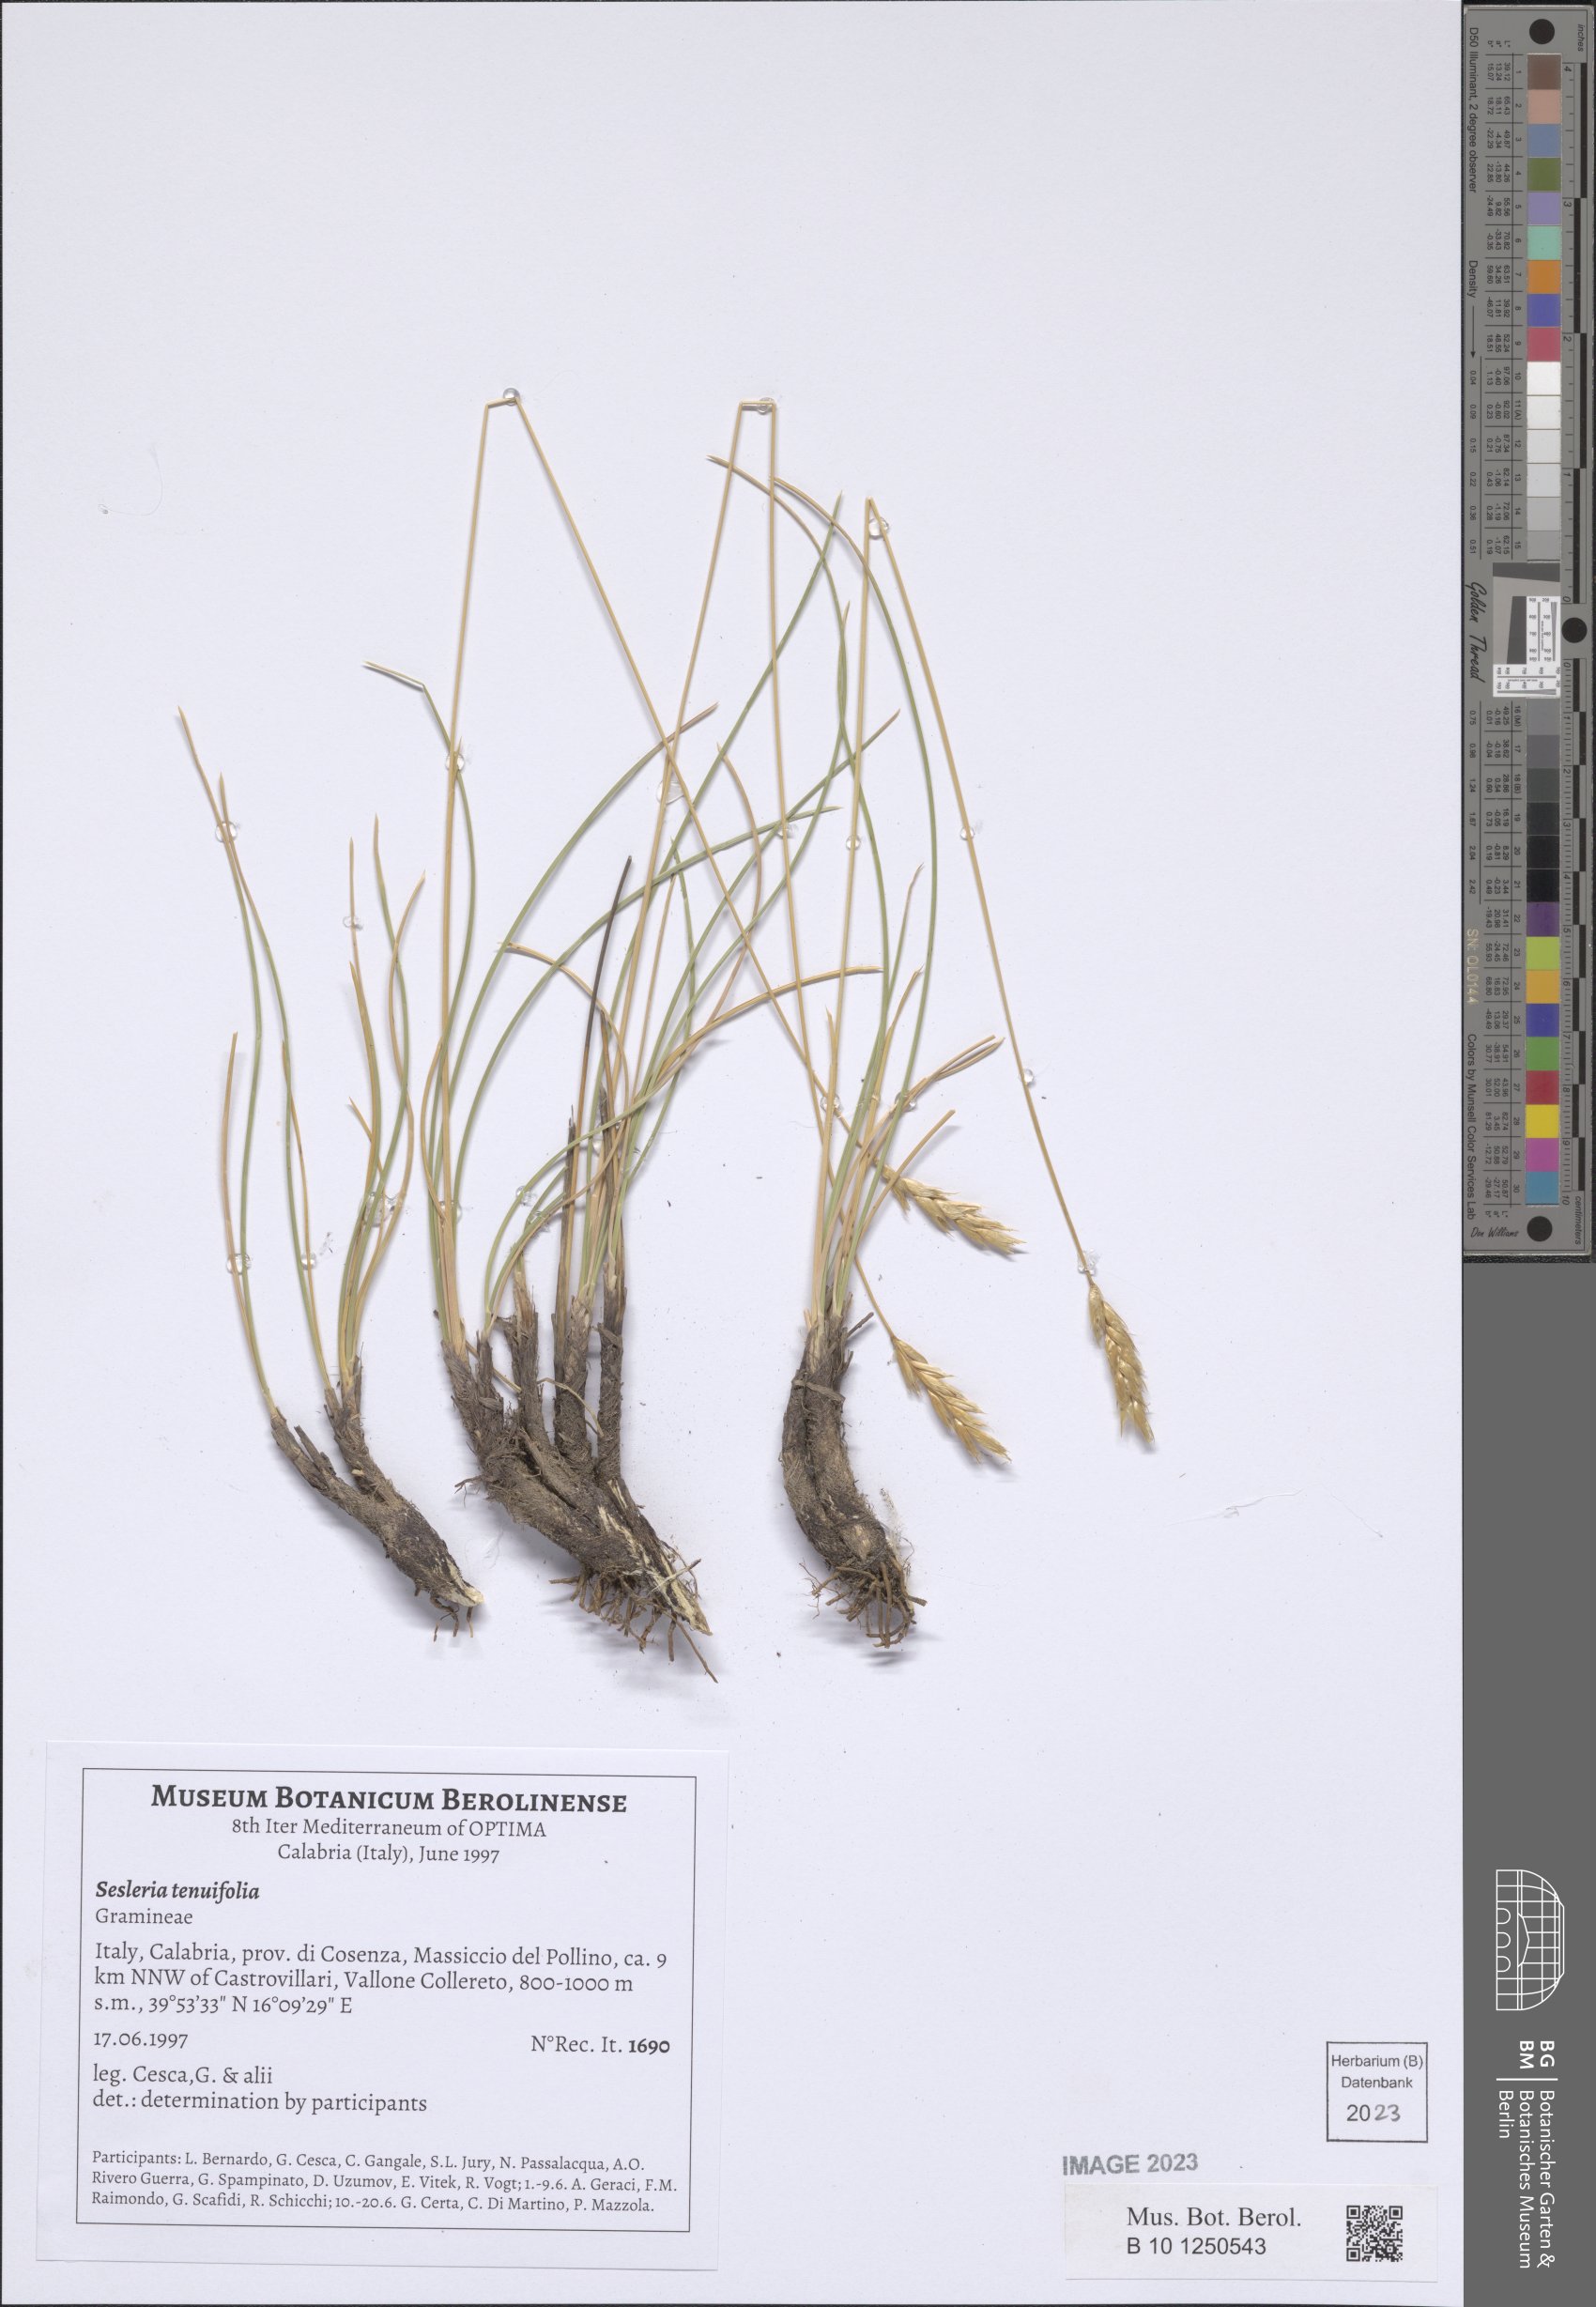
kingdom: Plantae
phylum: Tracheophyta
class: Liliopsida
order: Poales
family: Poaceae
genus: Sesleria
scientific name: Sesleria juncifolia
